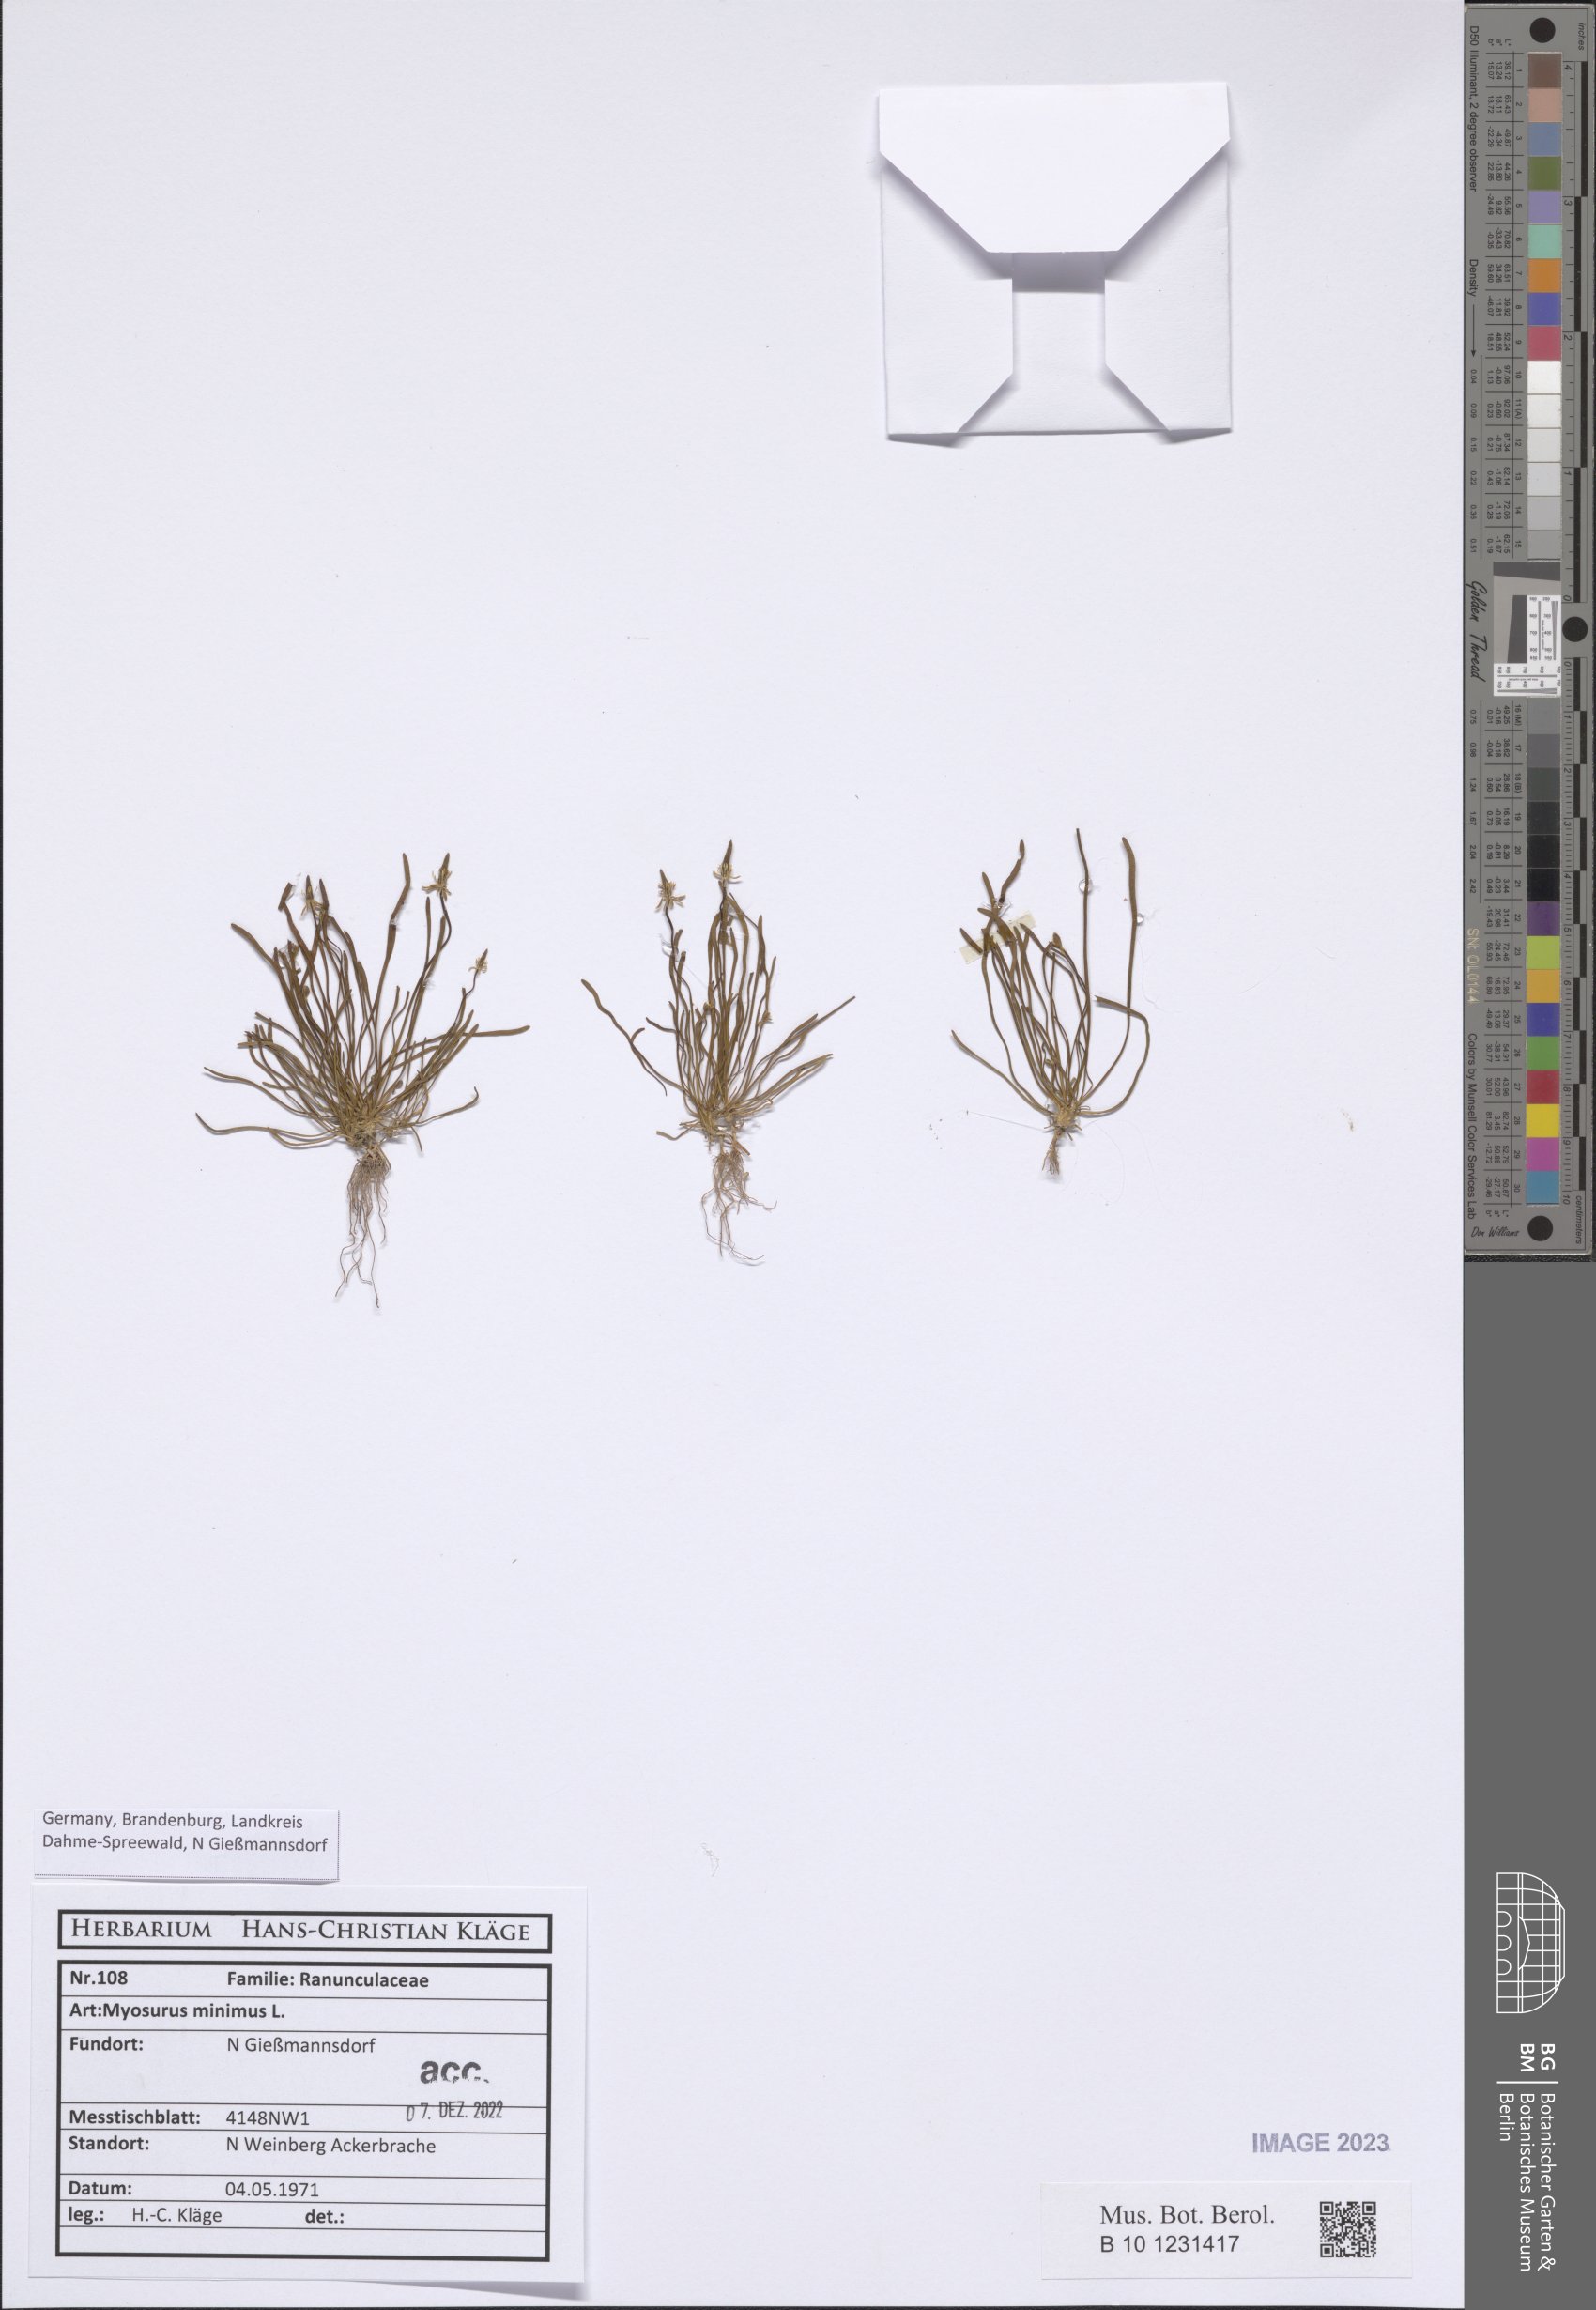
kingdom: Plantae
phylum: Tracheophyta
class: Magnoliopsida
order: Ranunculales
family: Ranunculaceae
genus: Myosurus
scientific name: Myosurus minimus
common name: Mousetail
